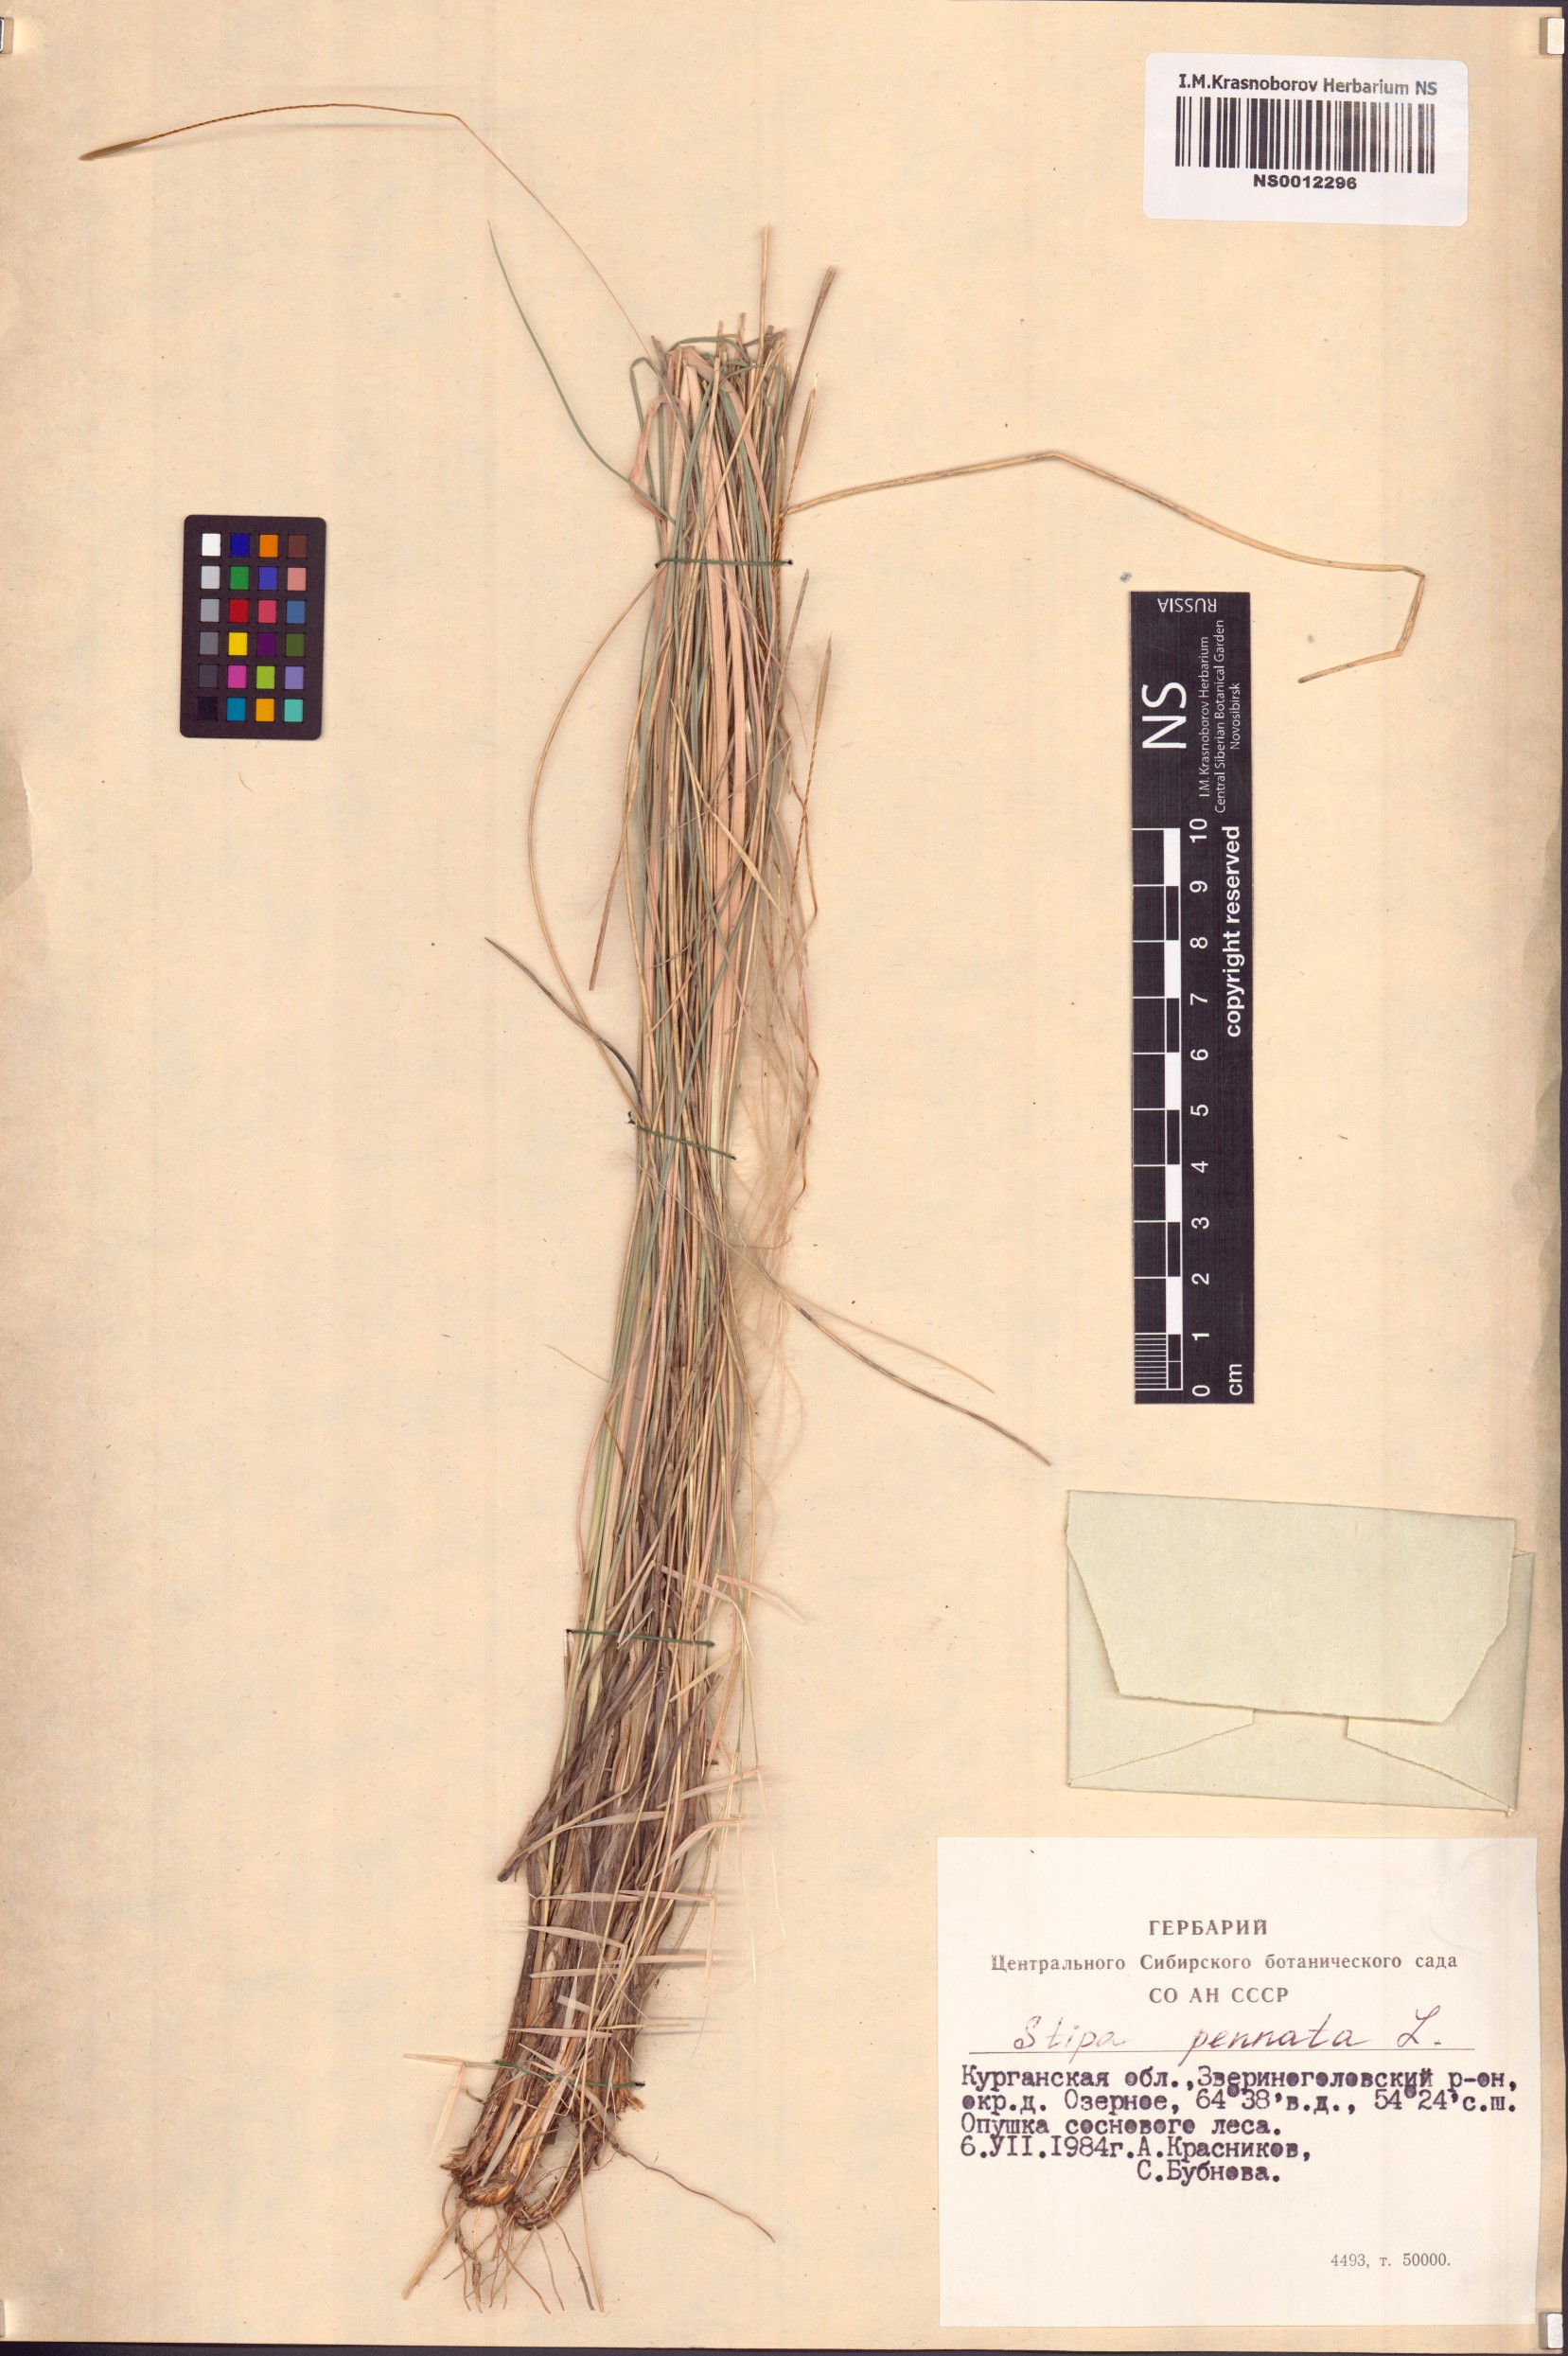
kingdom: Plantae
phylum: Tracheophyta
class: Liliopsida
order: Poales
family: Poaceae
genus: Stipa
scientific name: Stipa pennata
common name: European feather grass
